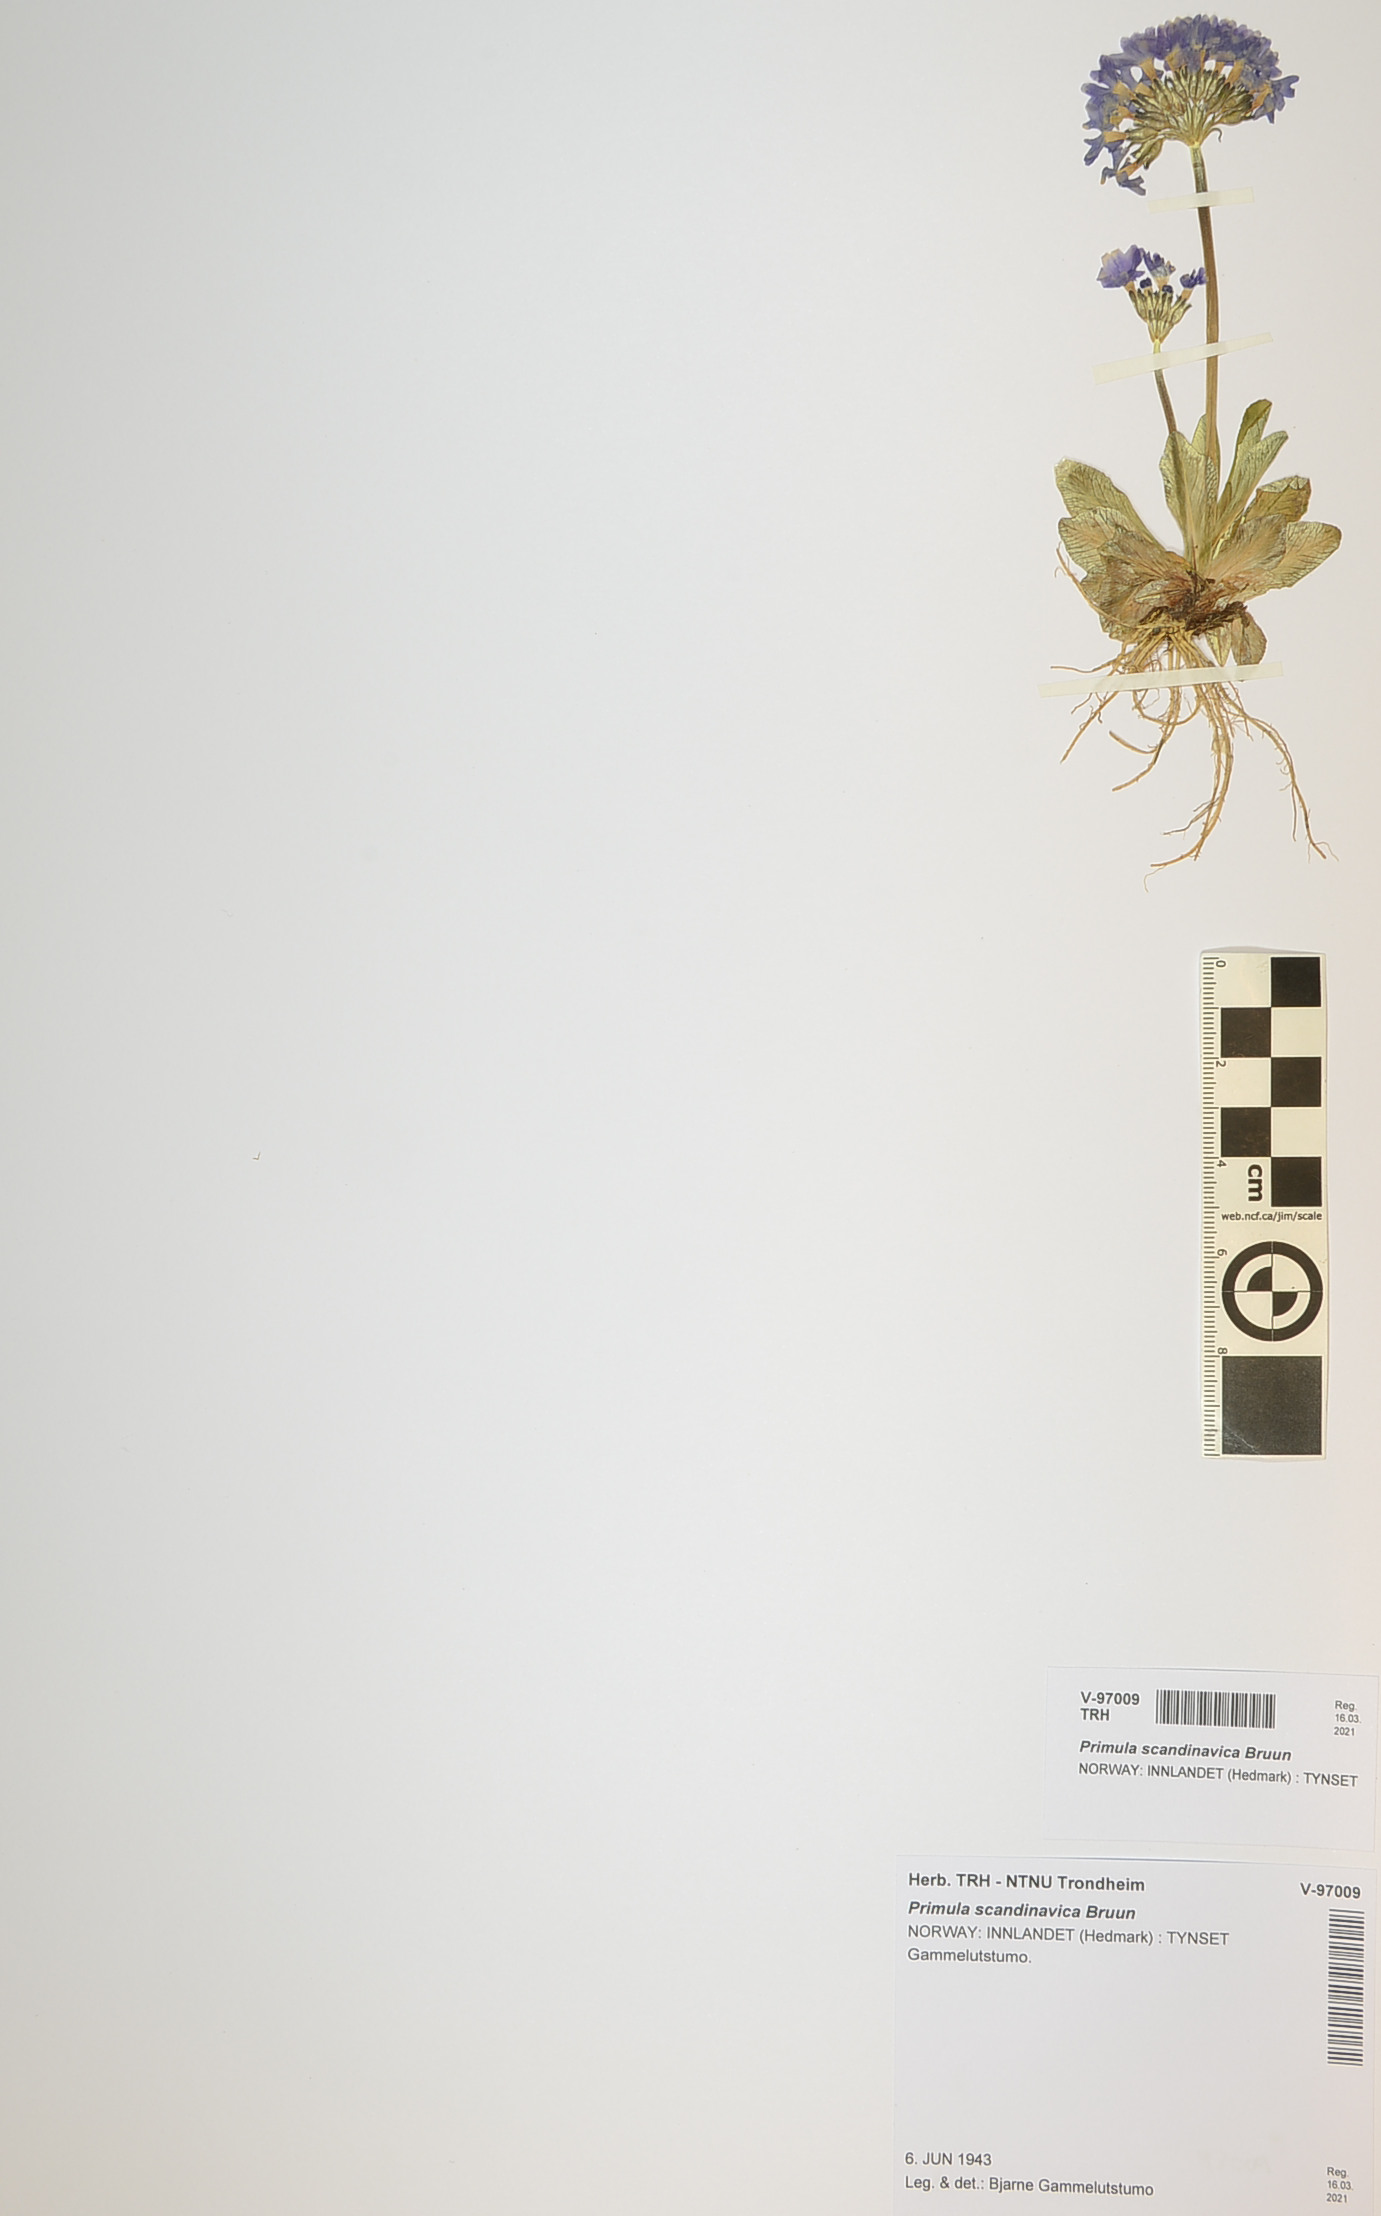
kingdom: Plantae
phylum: Tracheophyta
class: Magnoliopsida
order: Ericales
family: Primulaceae
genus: Primula
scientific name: Primula scandinavica
